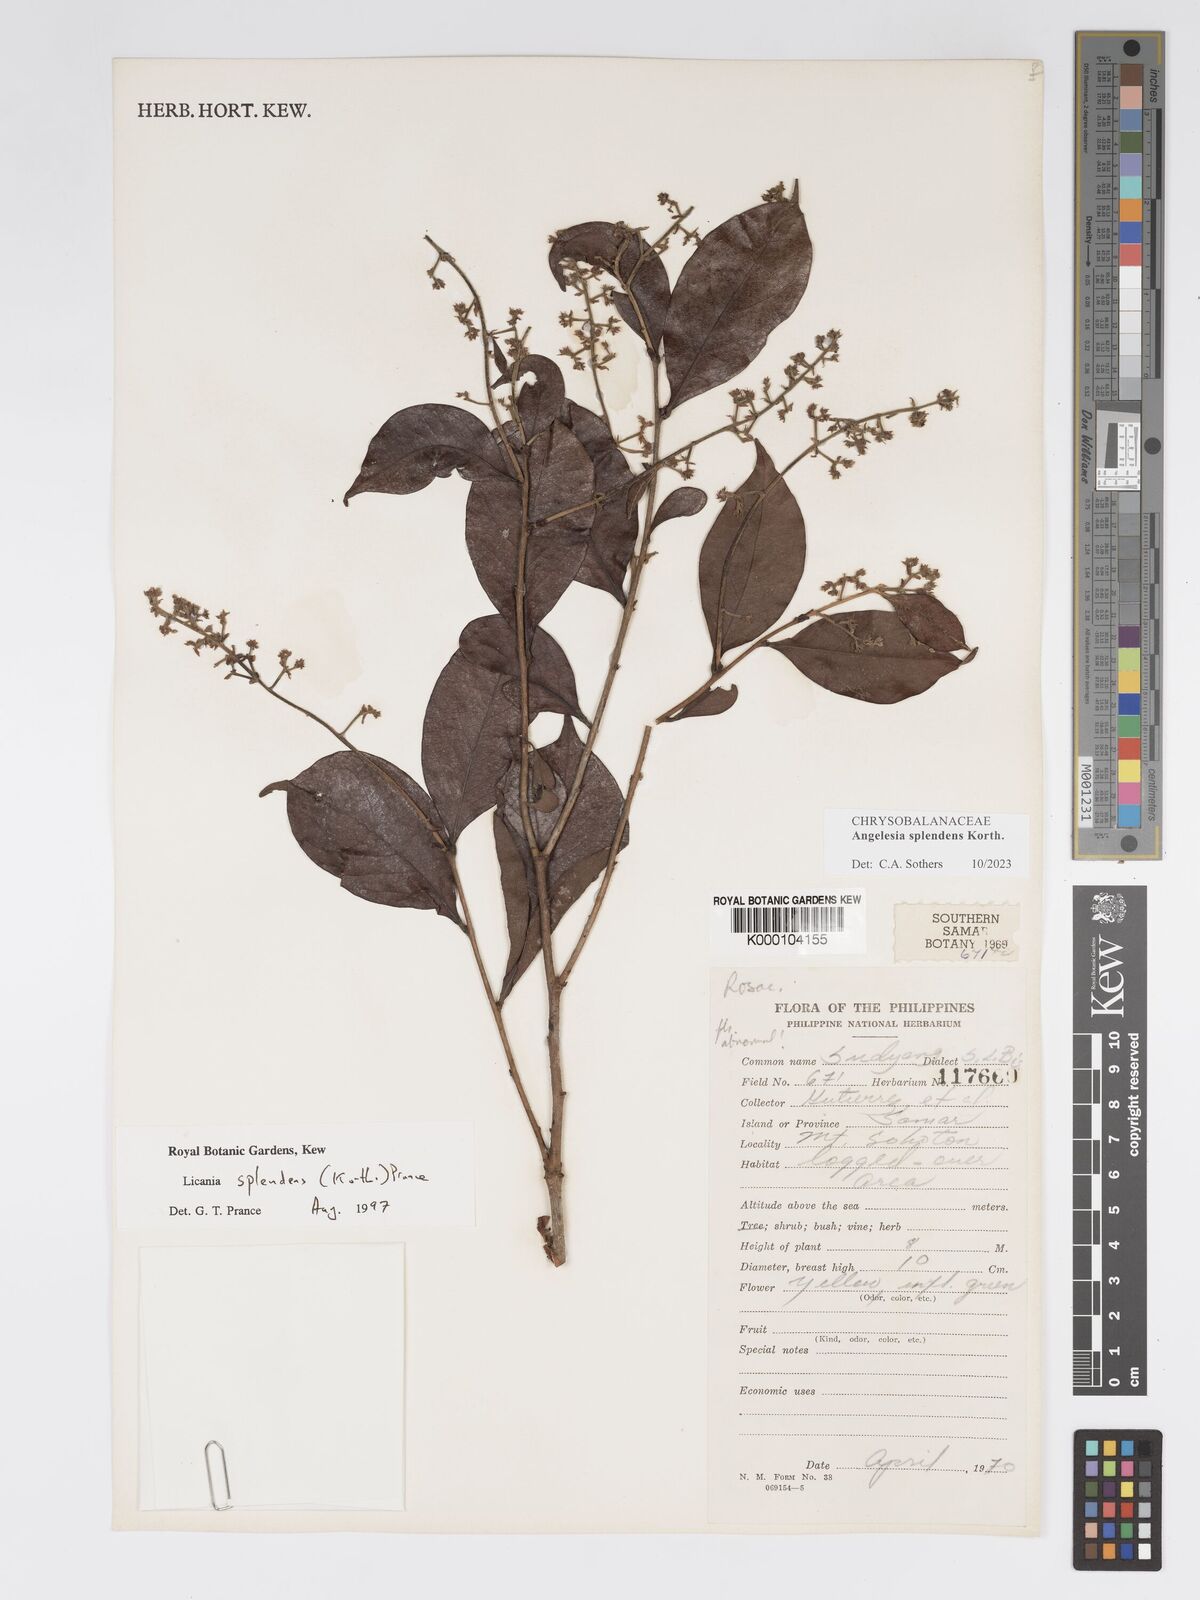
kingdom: Plantae
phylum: Tracheophyta
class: Magnoliopsida
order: Malpighiales
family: Chrysobalanaceae
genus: Angelesia
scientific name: Angelesia splendens
